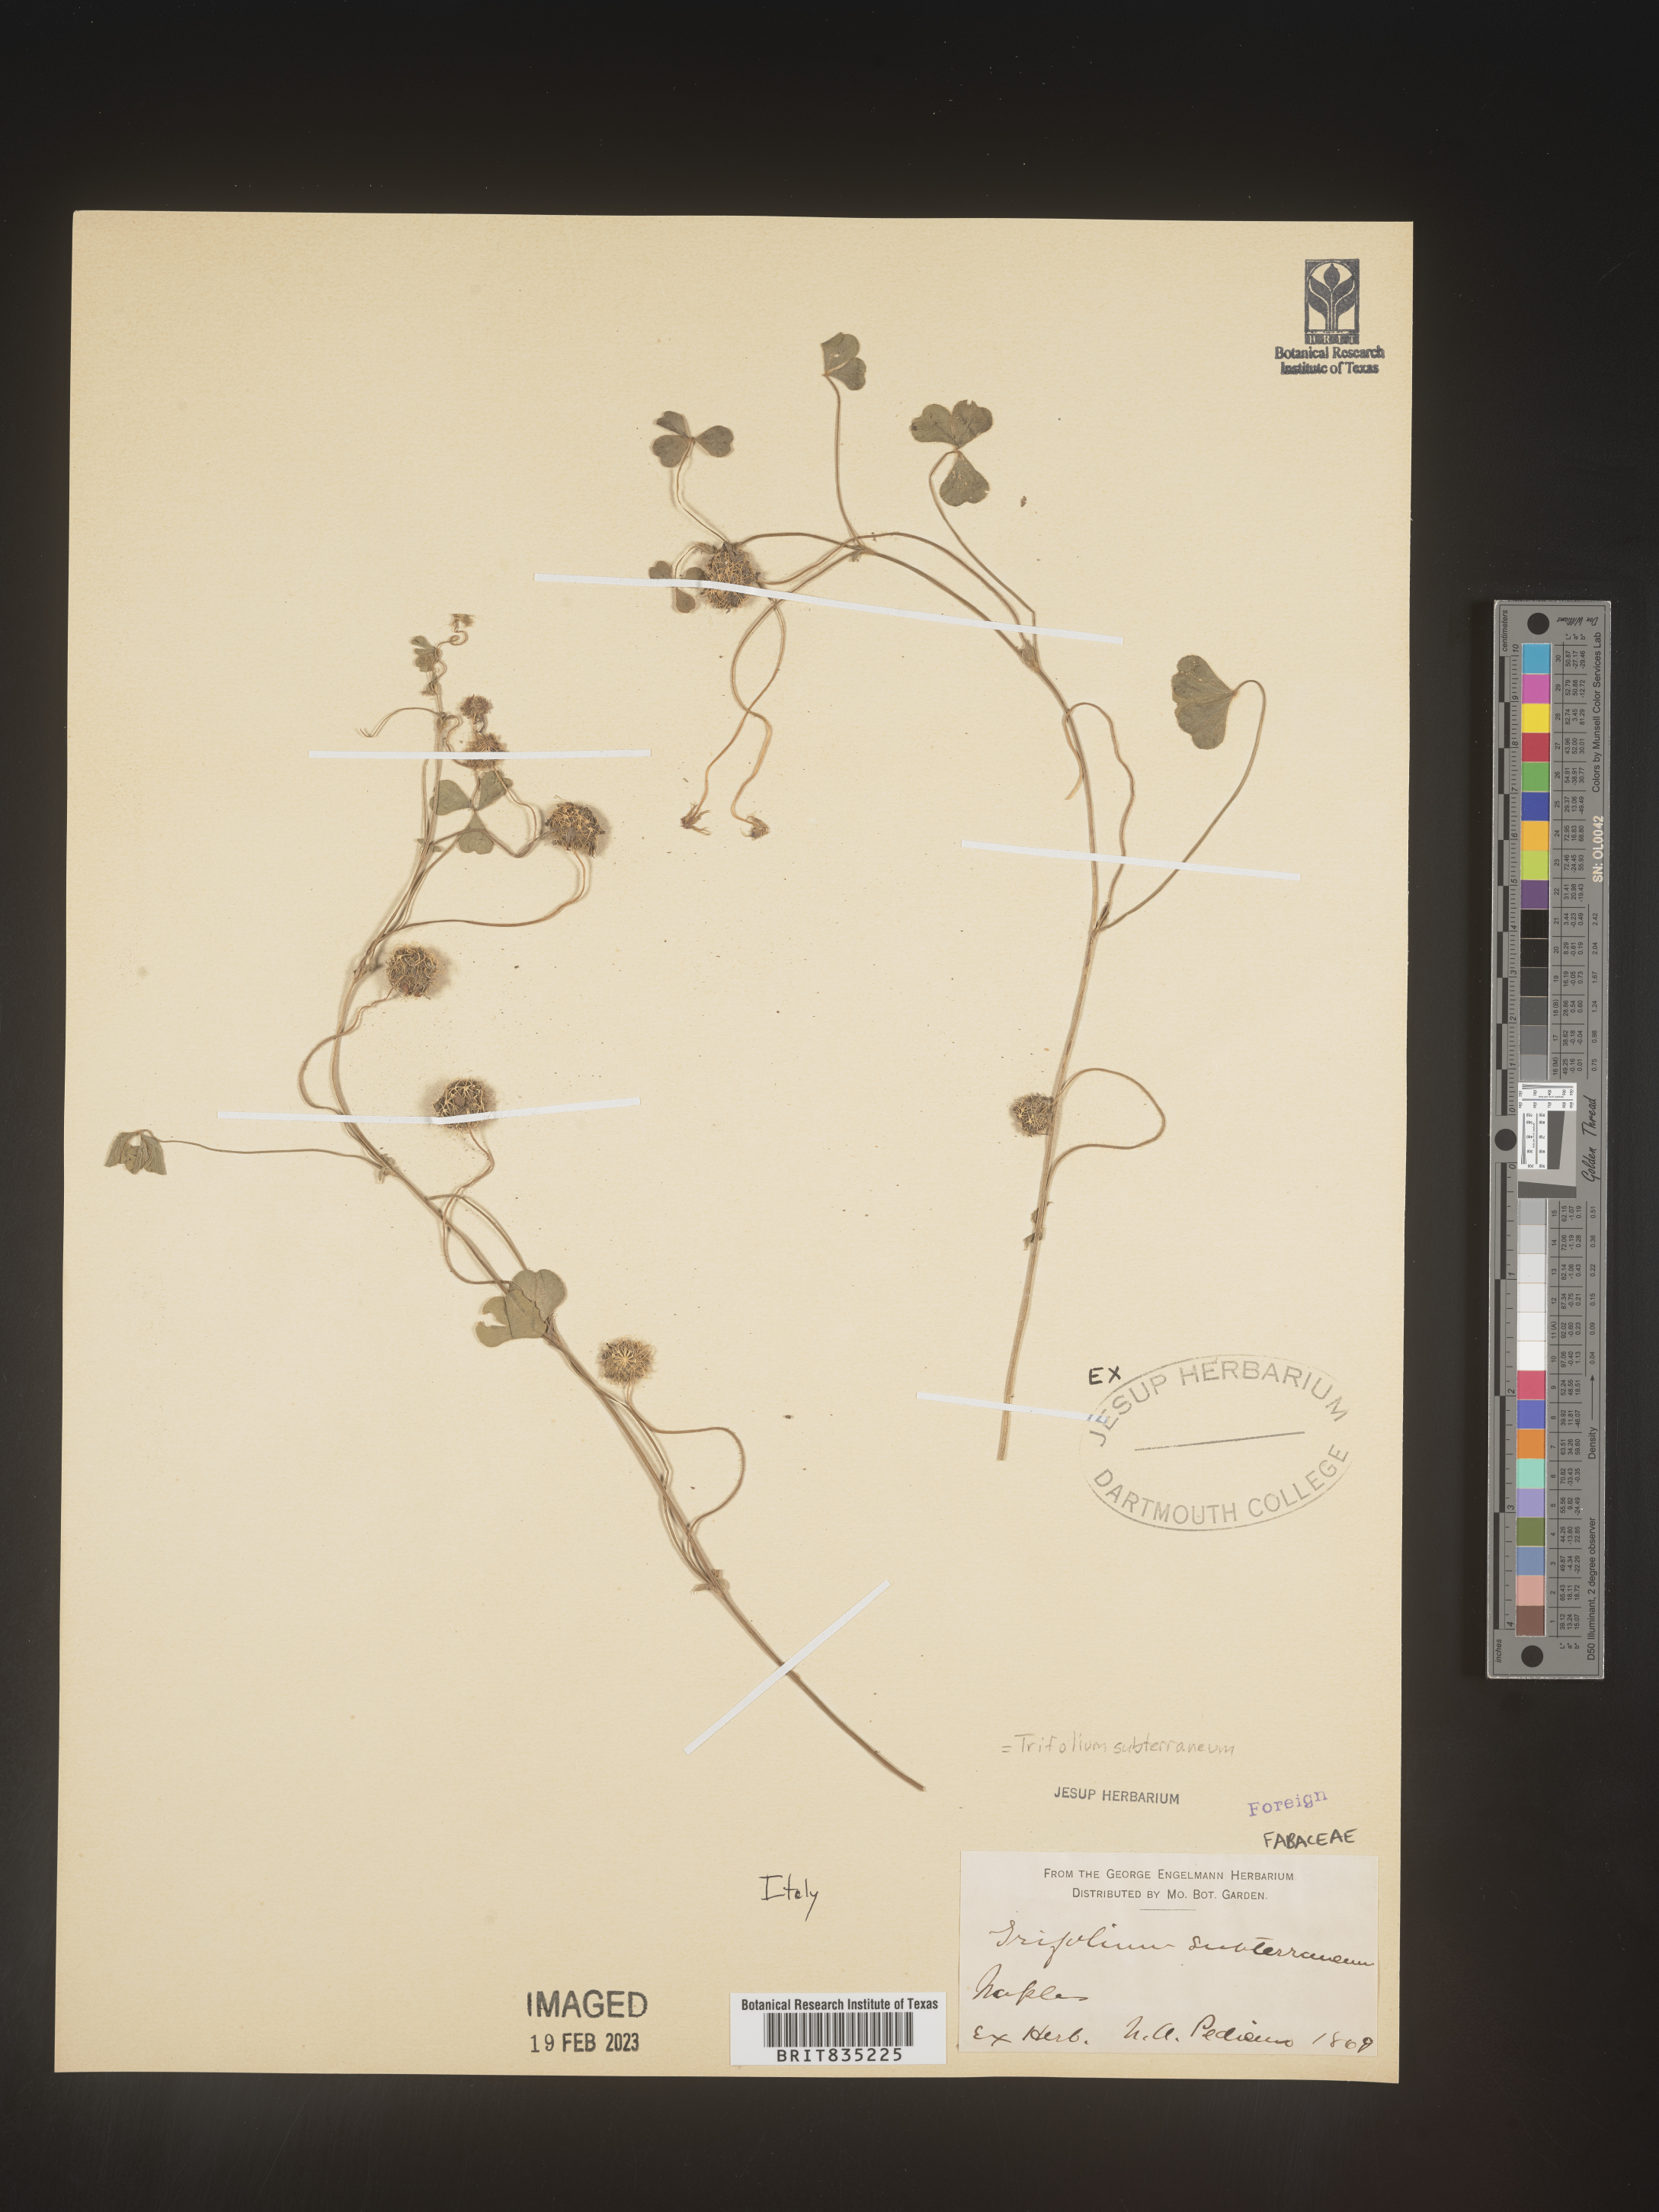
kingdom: Plantae
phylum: Tracheophyta
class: Magnoliopsida
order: Fabales
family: Fabaceae
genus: Trifolium
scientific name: Trifolium
